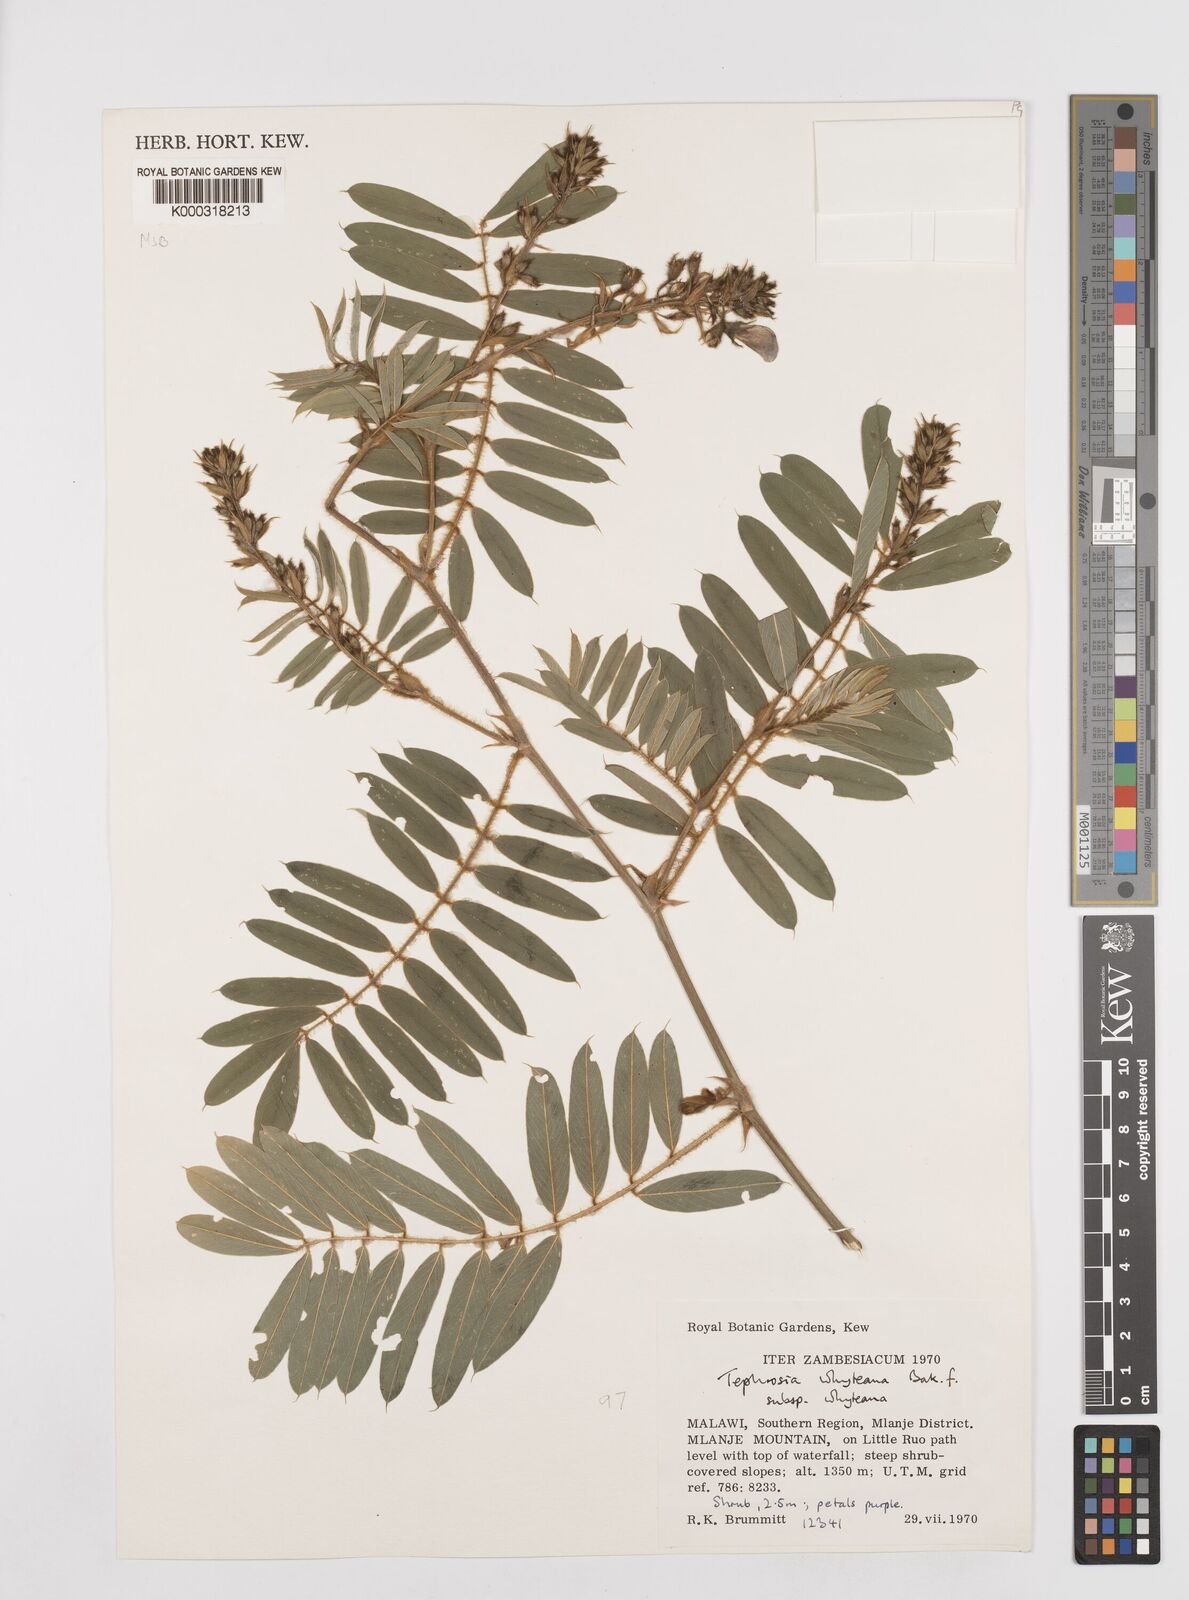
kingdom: Plantae
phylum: Tracheophyta
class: Magnoliopsida
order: Fabales
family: Fabaceae
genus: Tephrosia
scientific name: Tephrosia whyteana
